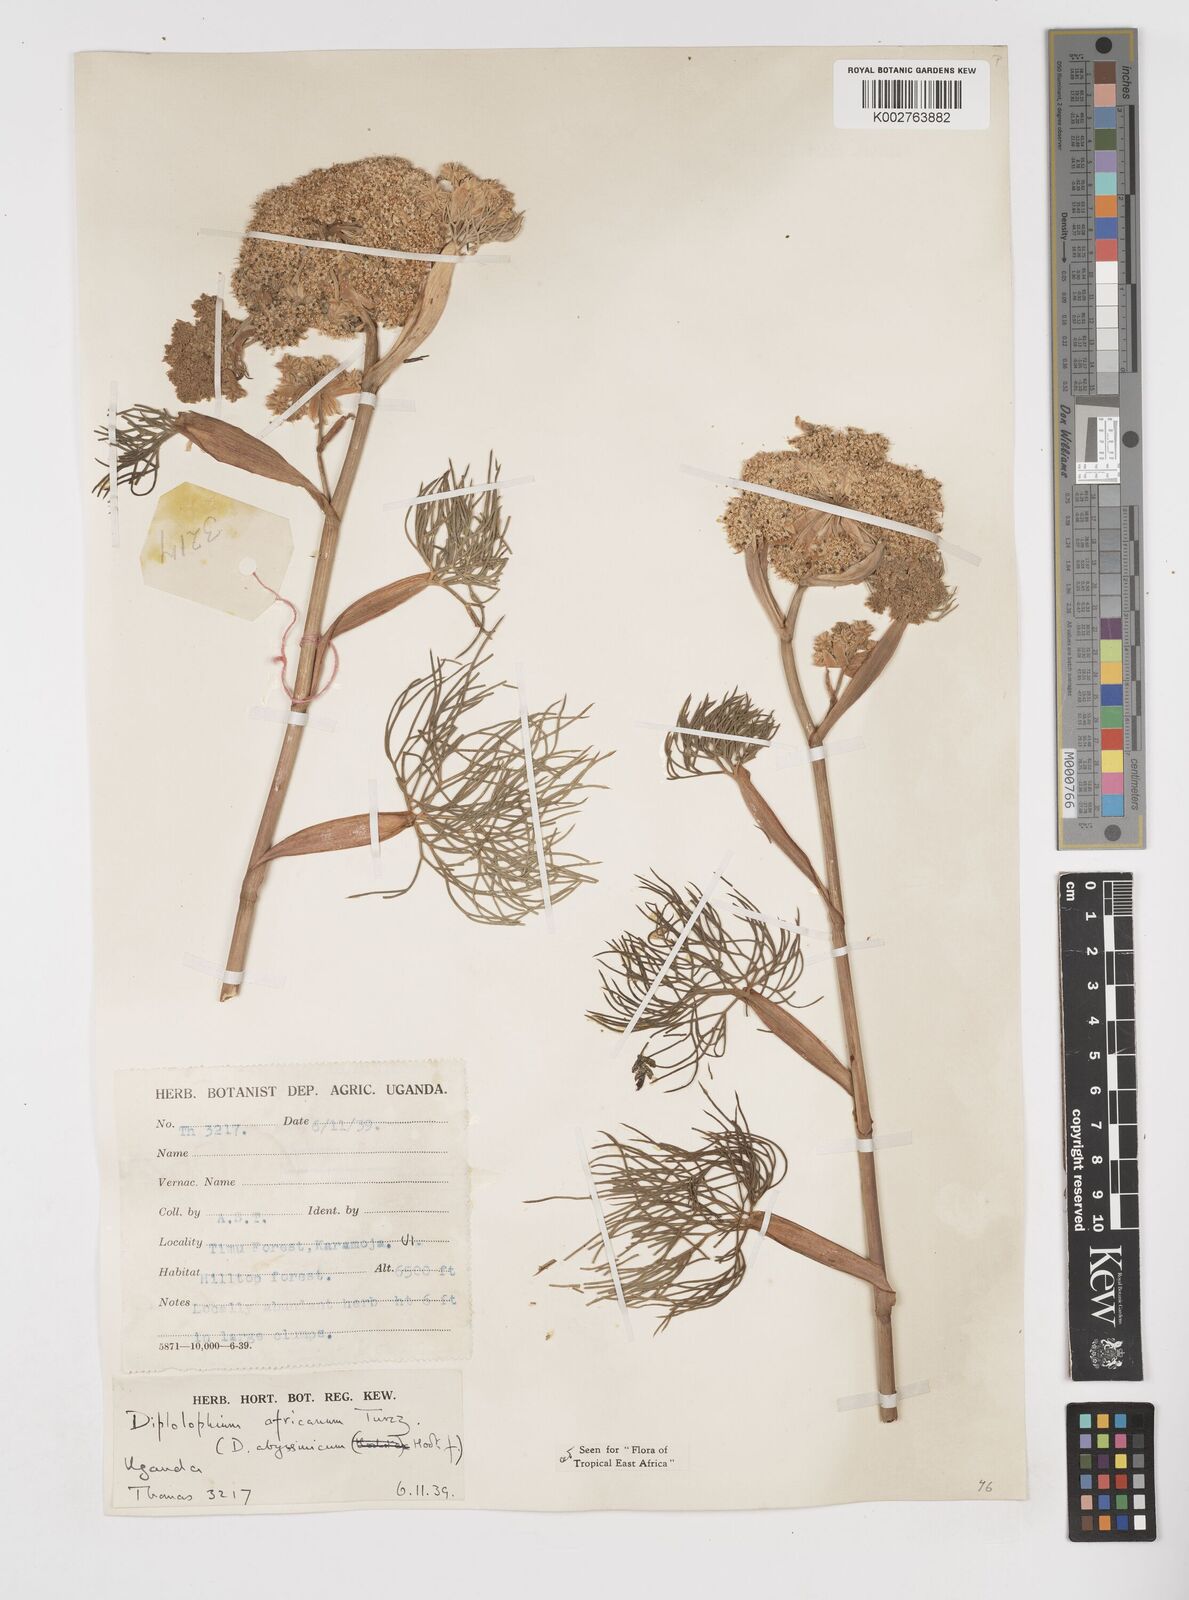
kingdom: Plantae
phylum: Tracheophyta
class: Magnoliopsida
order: Apiales
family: Apiaceae
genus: Diplolophium
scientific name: Diplolophium africanum
